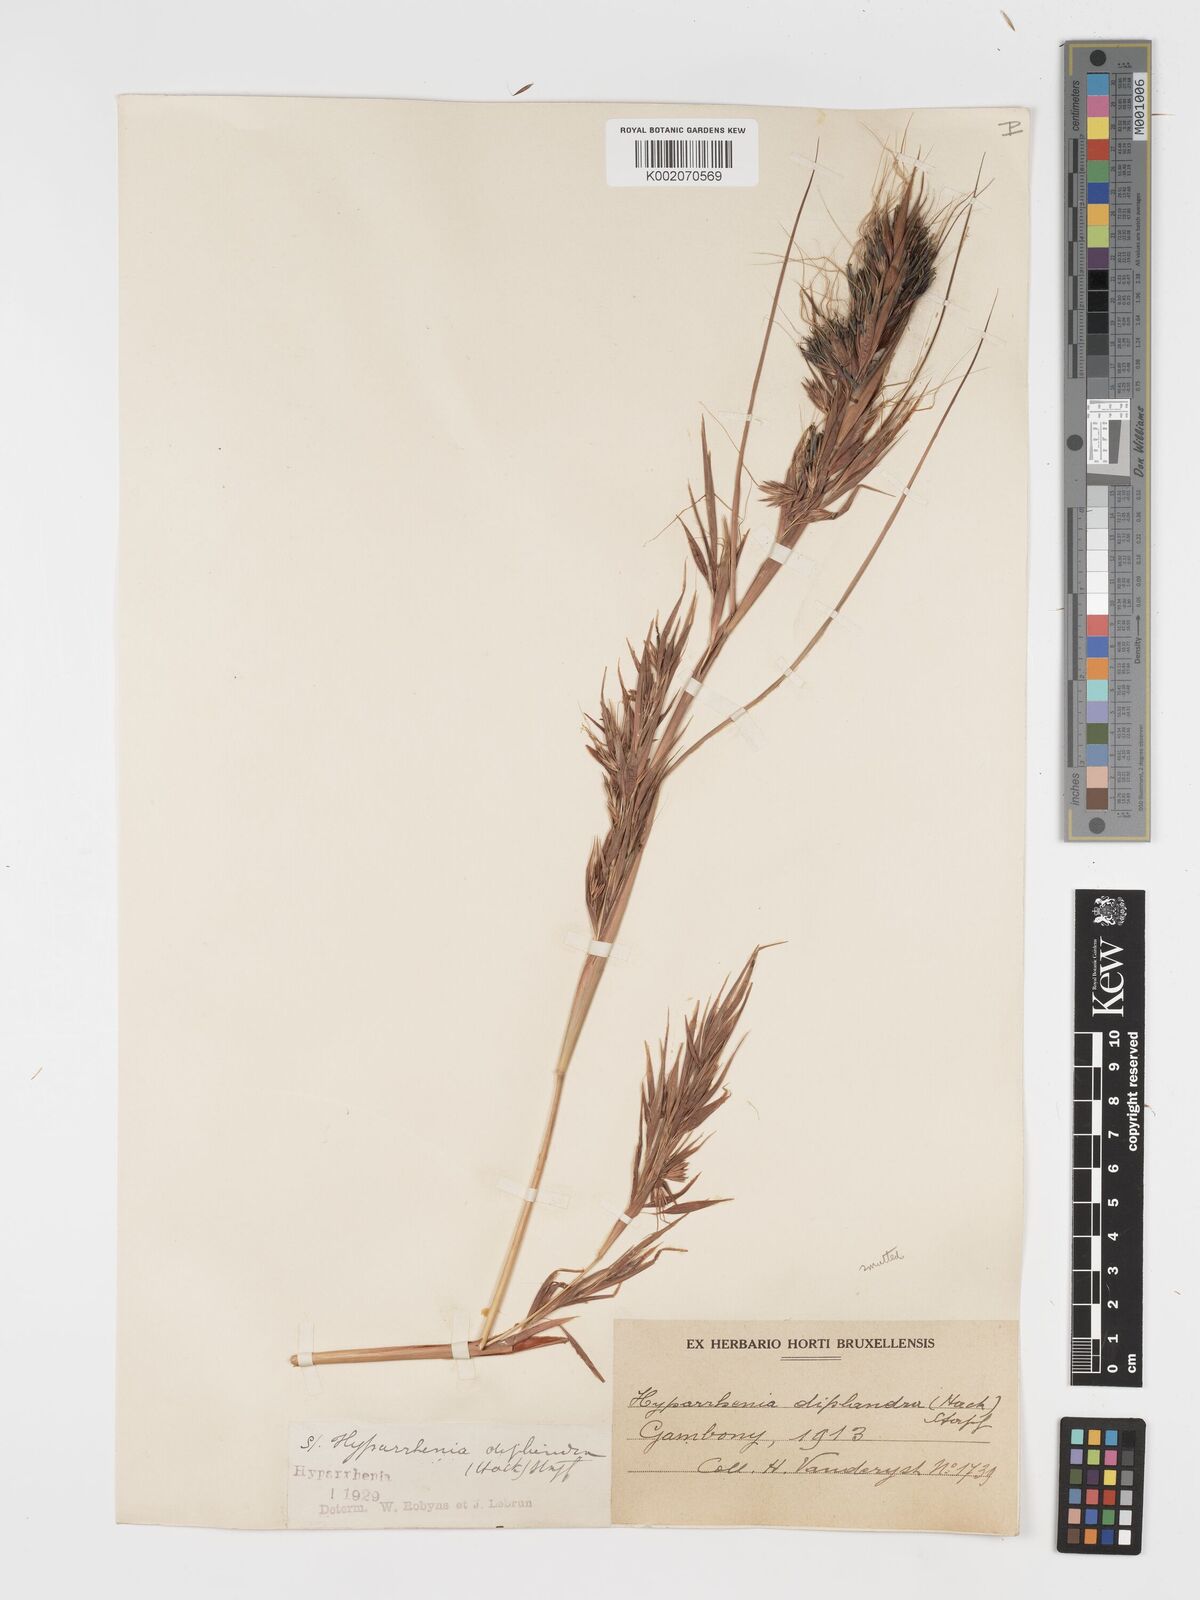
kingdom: Plantae
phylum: Tracheophyta
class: Liliopsida
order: Poales
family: Poaceae
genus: Hyparrhenia
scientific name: Hyparrhenia diplandra
